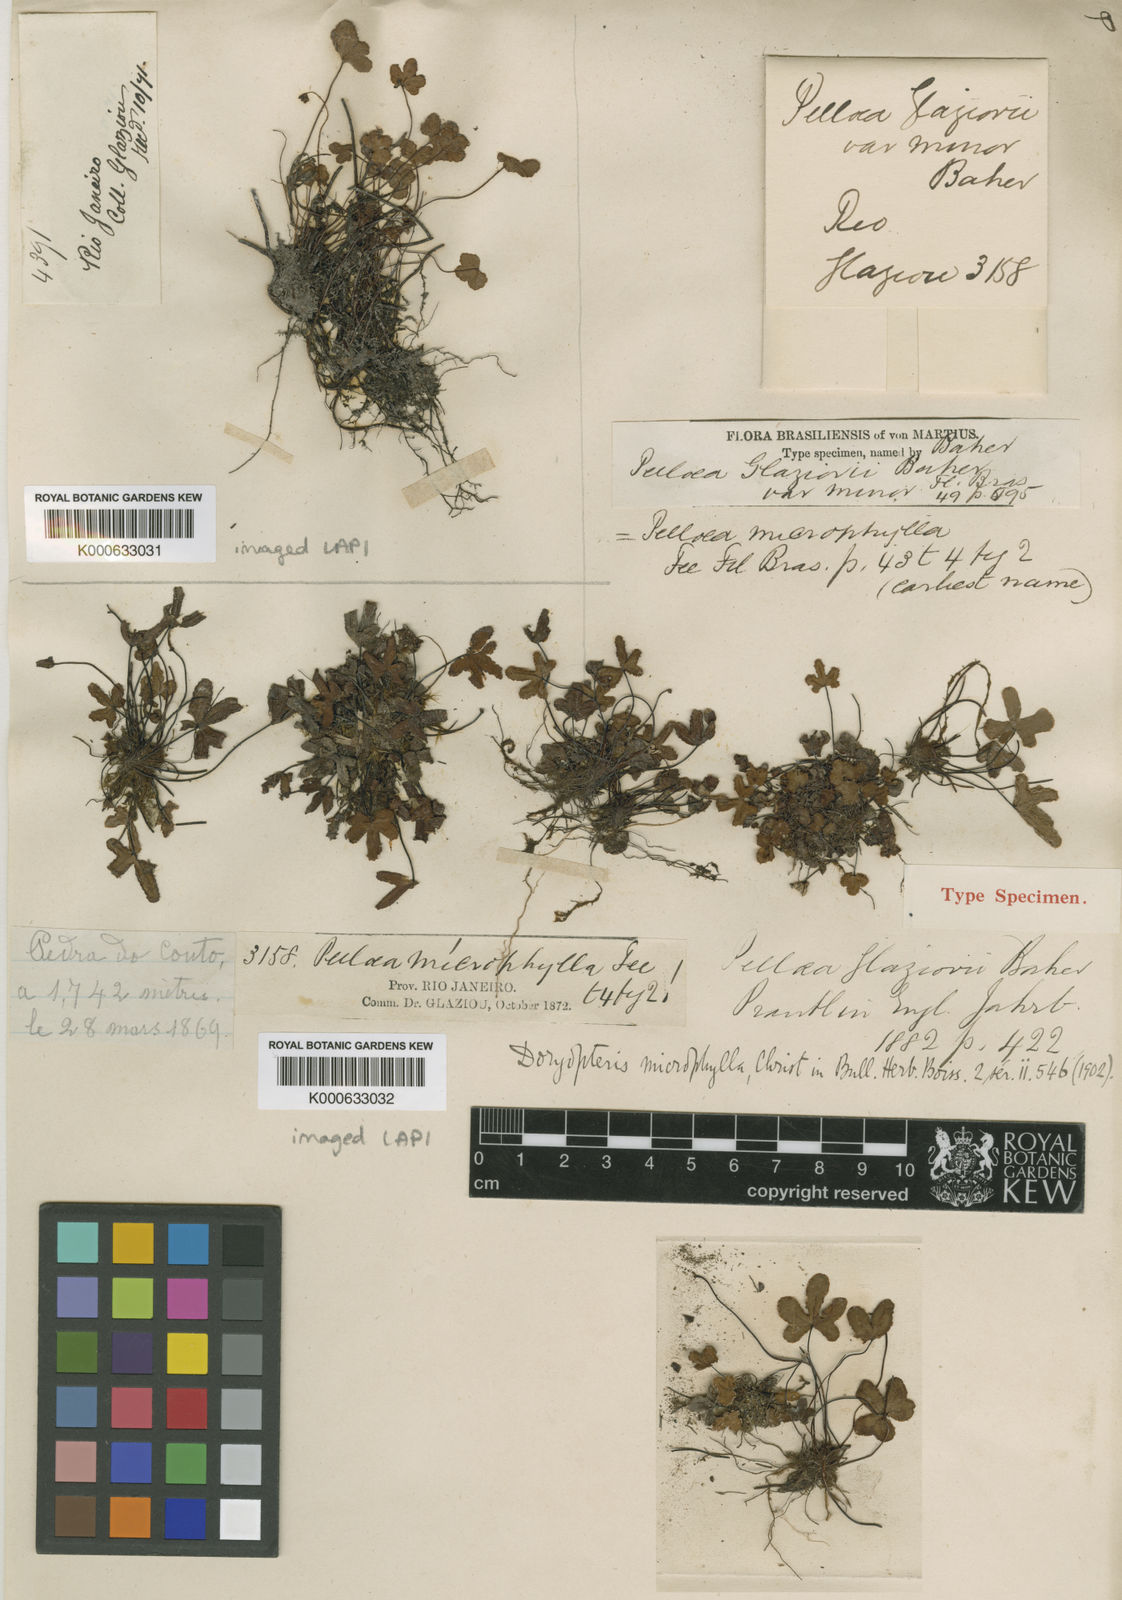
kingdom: Plantae
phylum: Tracheophyta
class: Polypodiopsida
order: Polypodiales
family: Pteridaceae
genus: Lytoneuron
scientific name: Lytoneuron microphyllum
